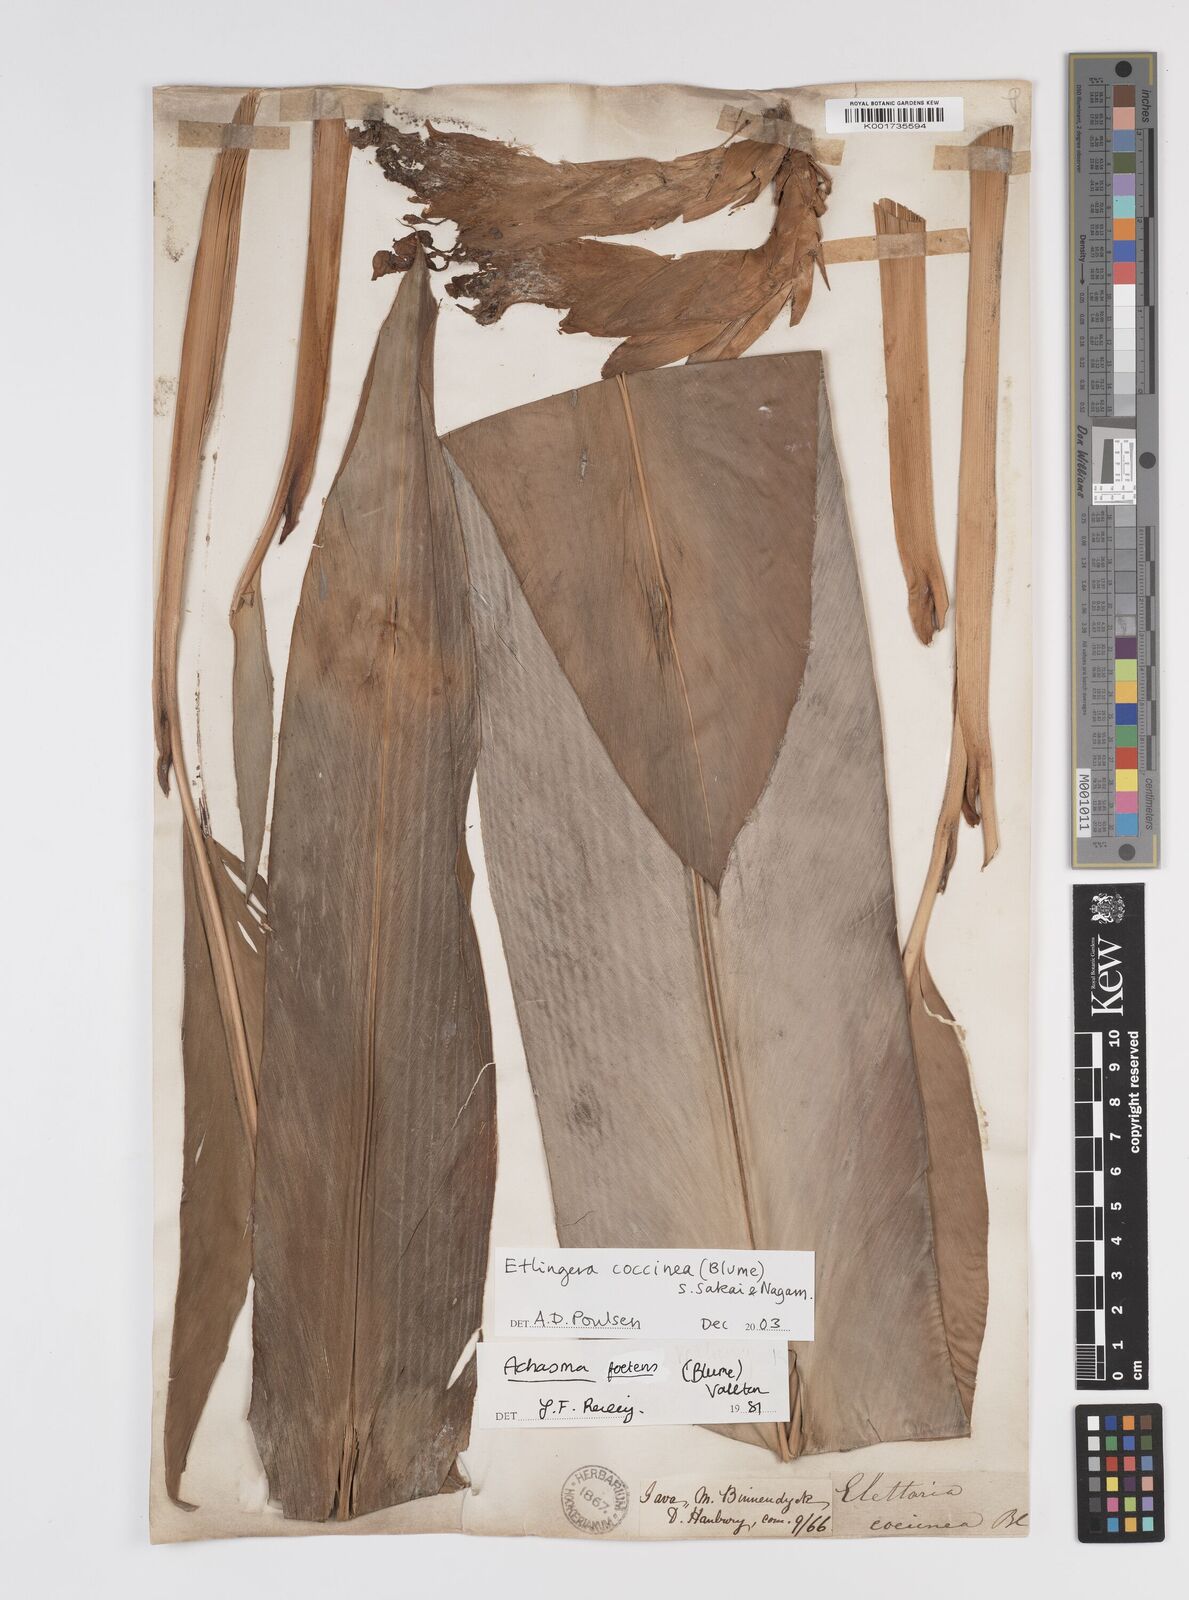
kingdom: Plantae
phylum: Tracheophyta
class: Liliopsida
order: Zingiberales
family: Zingiberaceae
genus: Etlingera
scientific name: Etlingera coccinea
